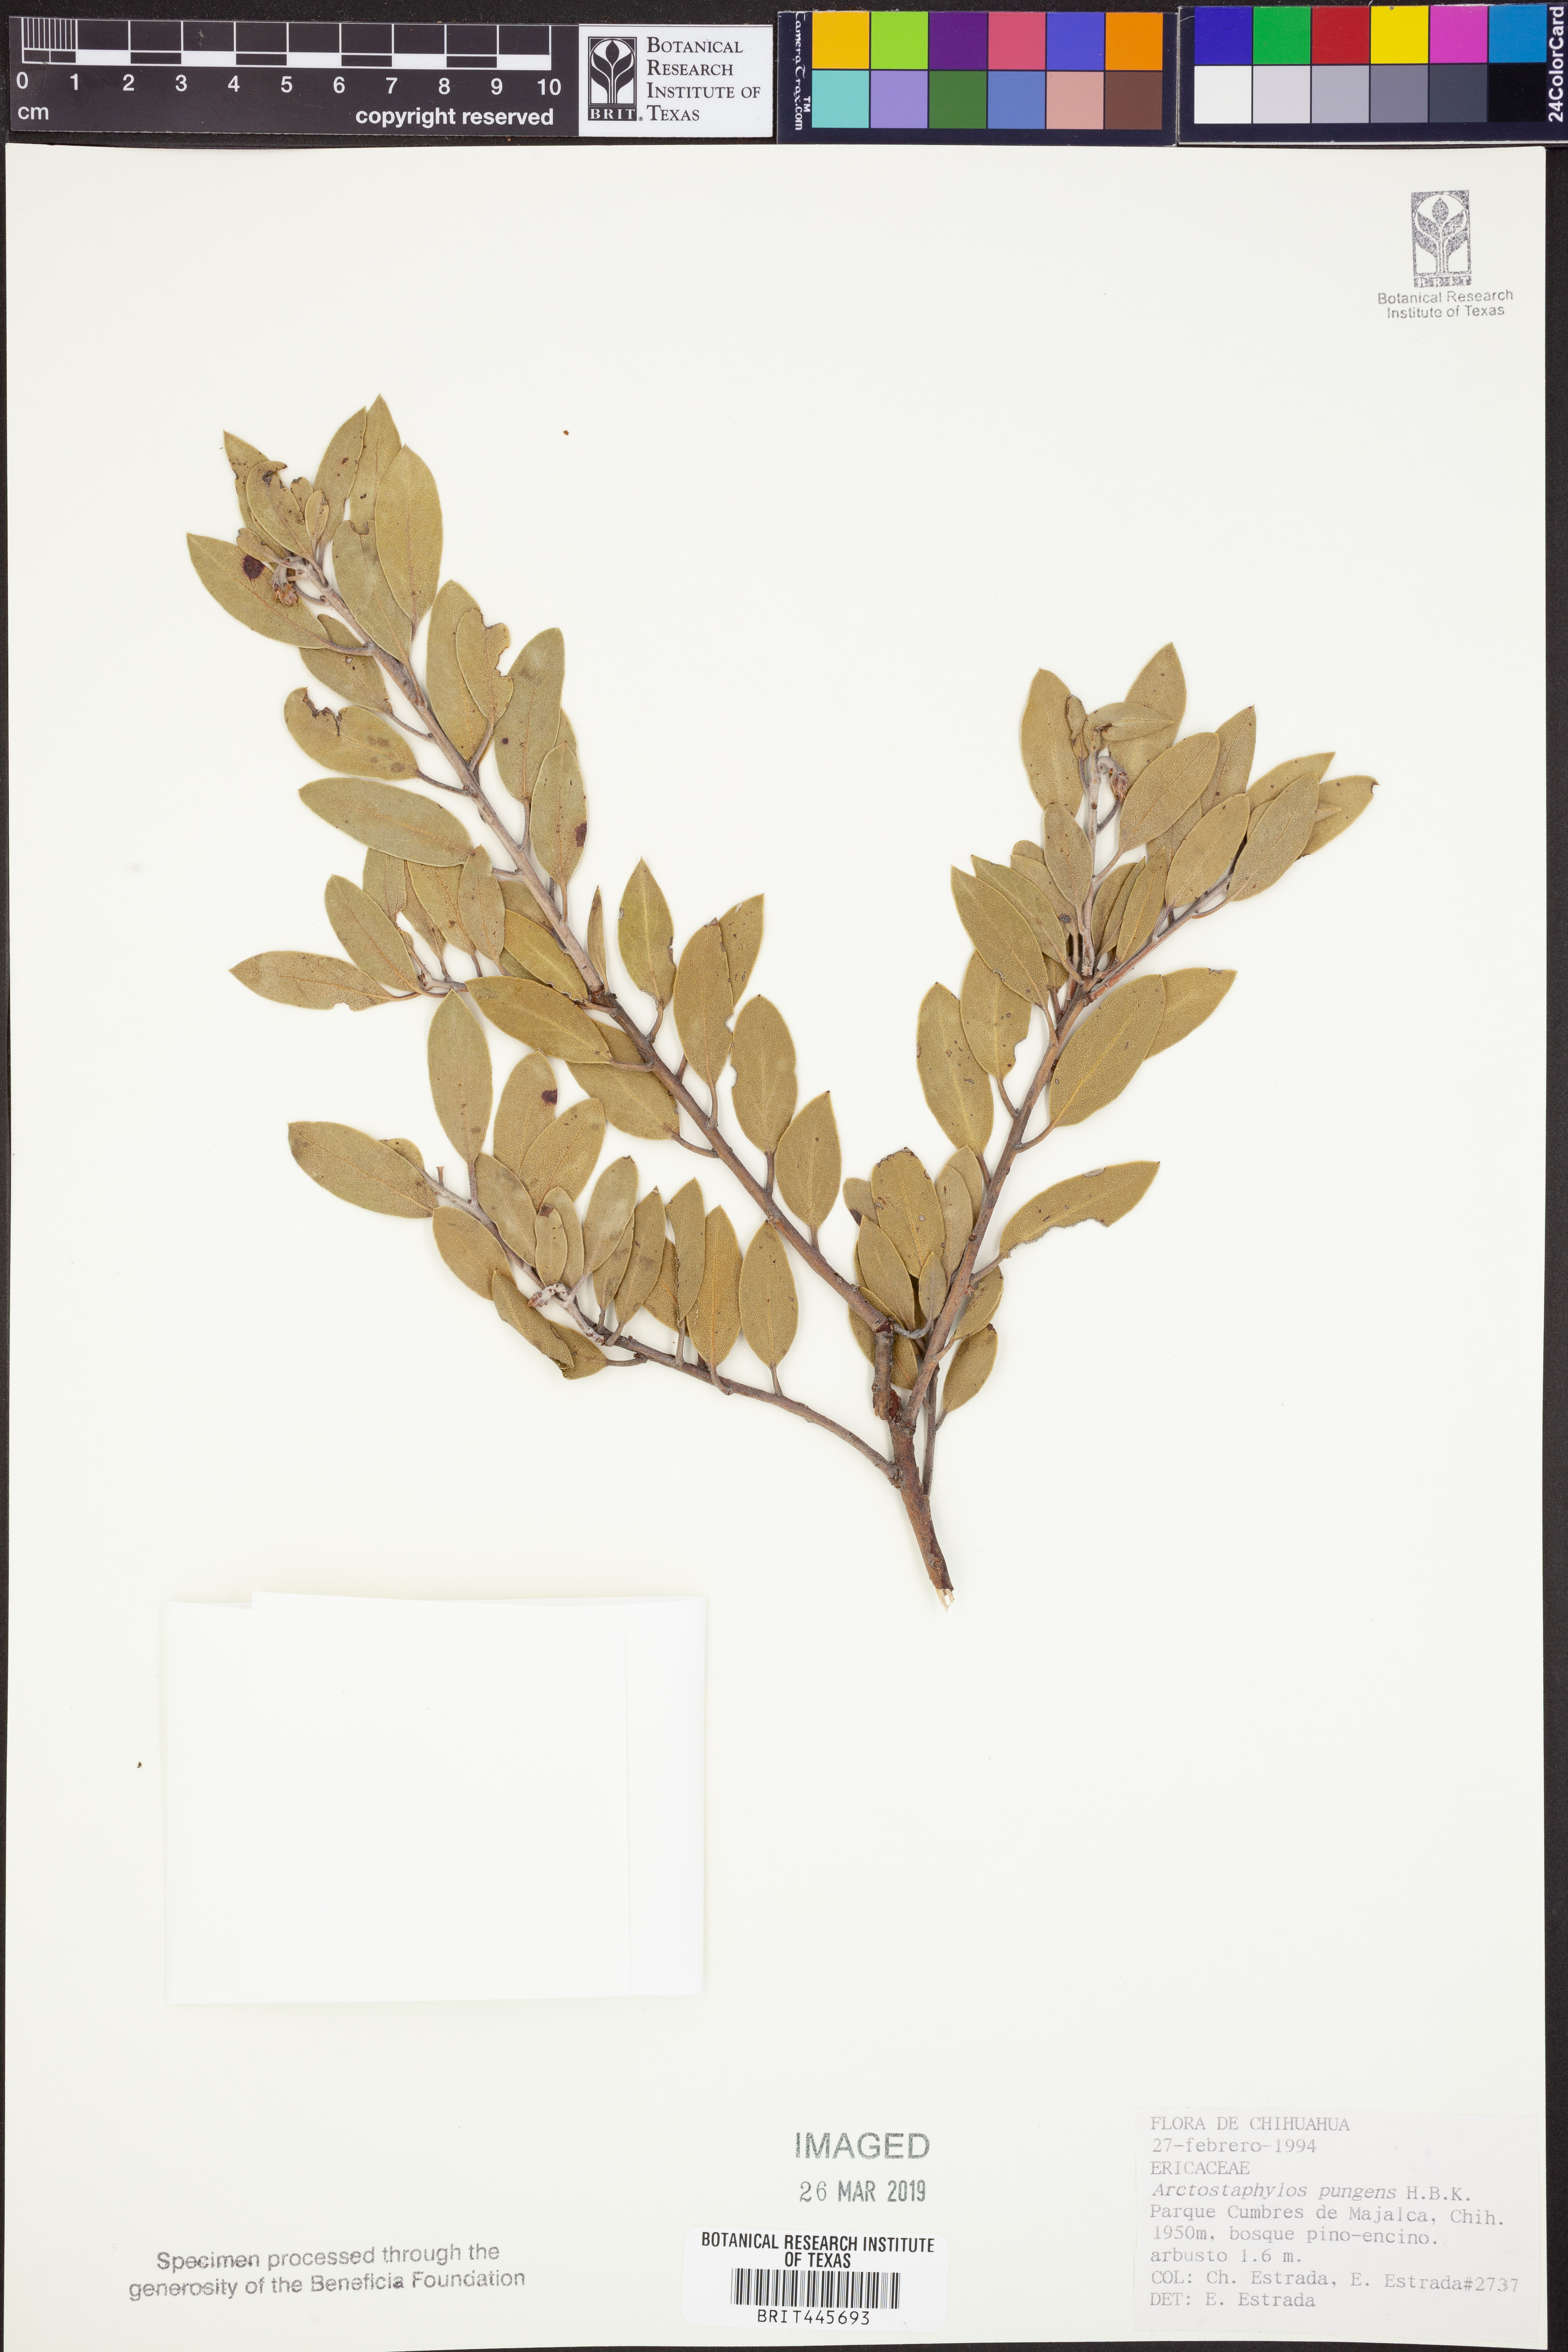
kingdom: Plantae
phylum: Tracheophyta
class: Magnoliopsida
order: Ericales
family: Ericaceae
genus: Arctostaphylos
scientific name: Arctostaphylos pungens
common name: Mexican manzanita
